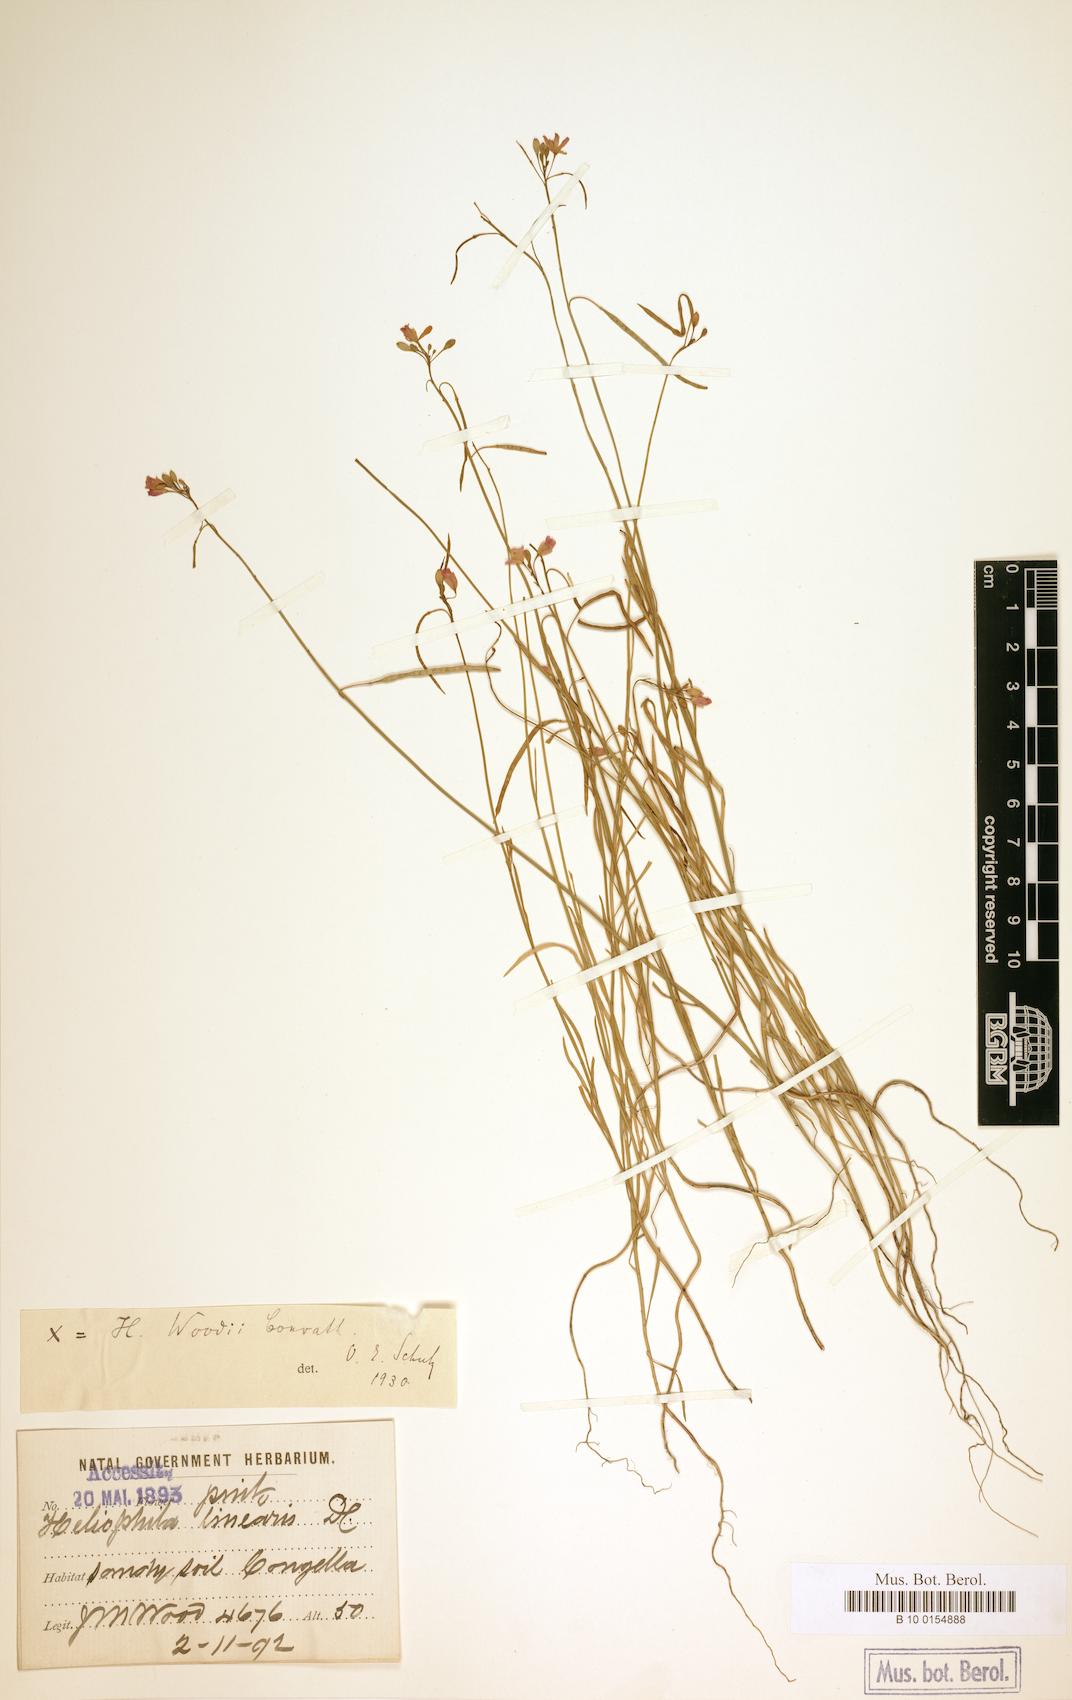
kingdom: Plantae
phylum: Tracheophyta
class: Magnoliopsida
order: Brassicales
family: Brassicaceae
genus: Heliophila
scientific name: Heliophila subulata
